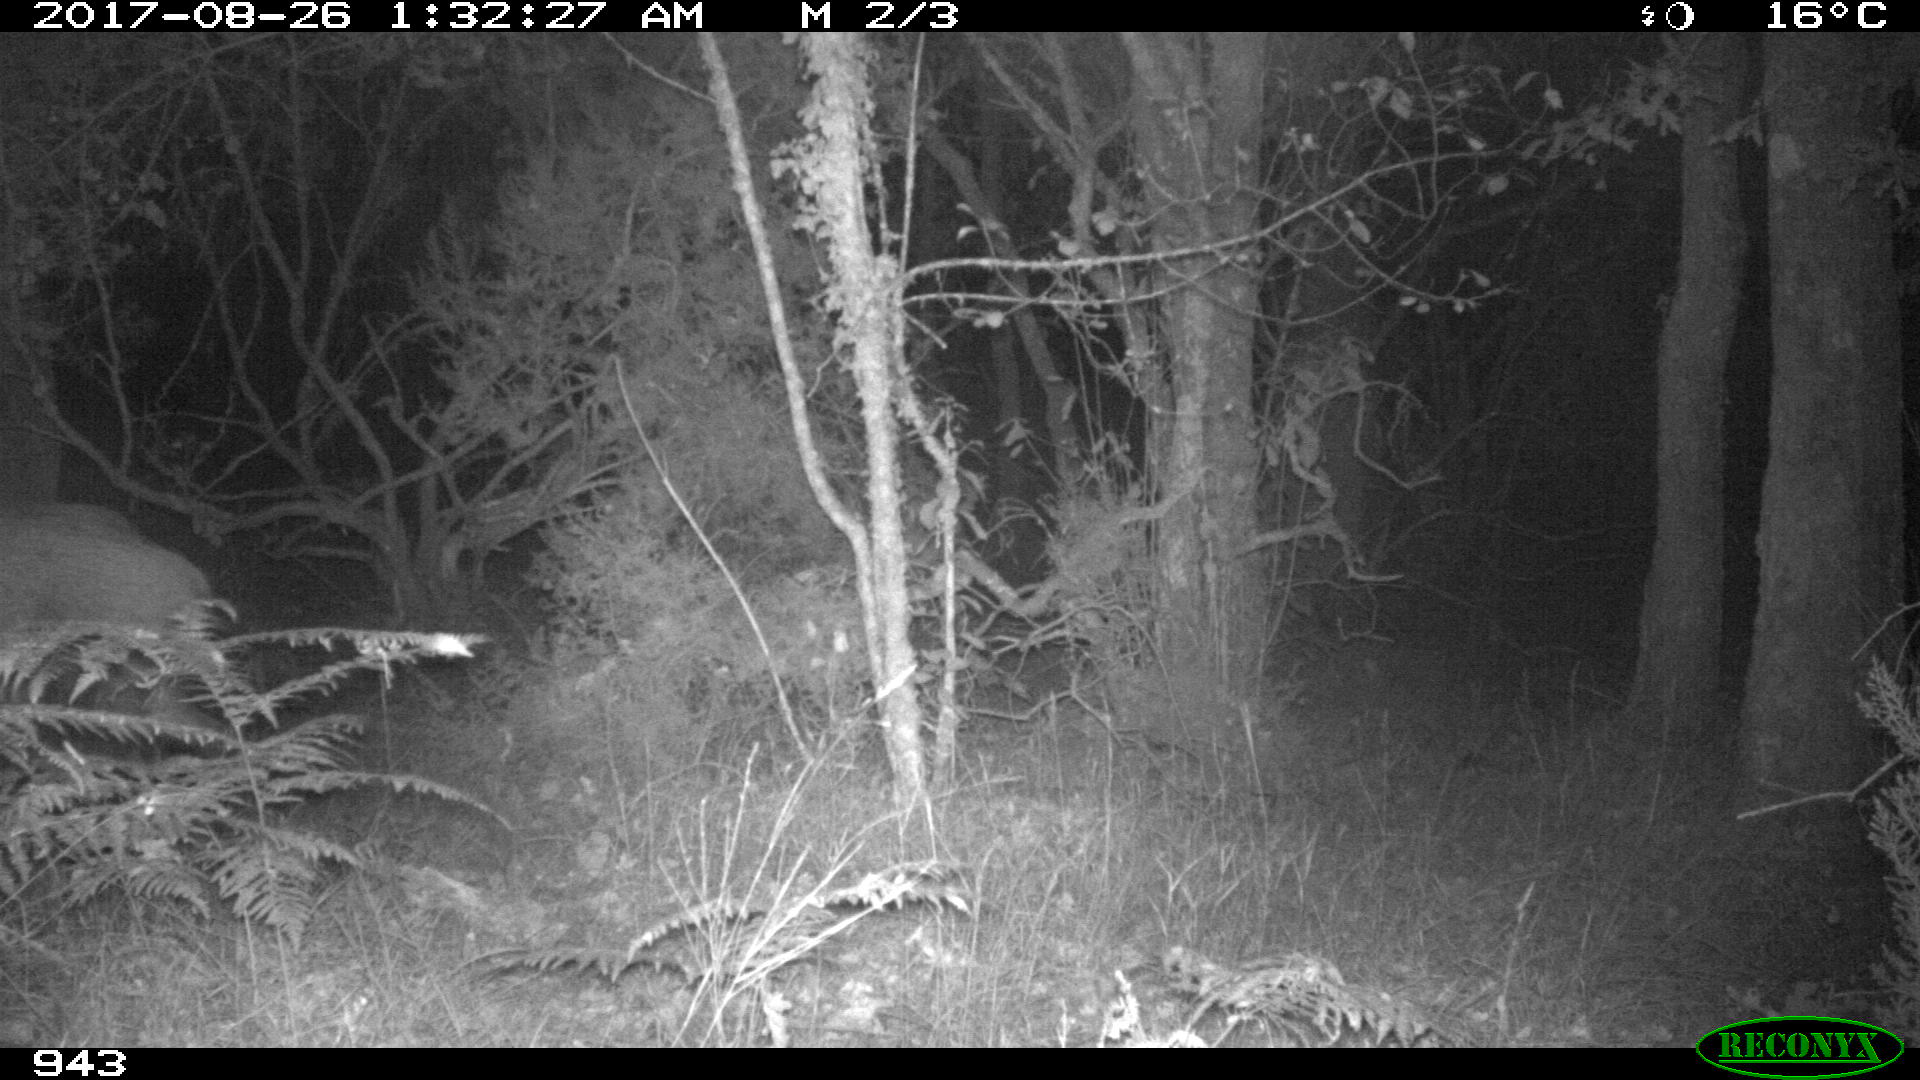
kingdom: Animalia
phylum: Chordata
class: Mammalia
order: Artiodactyla
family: Suidae
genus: Sus
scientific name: Sus scrofa
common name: Wild boar
